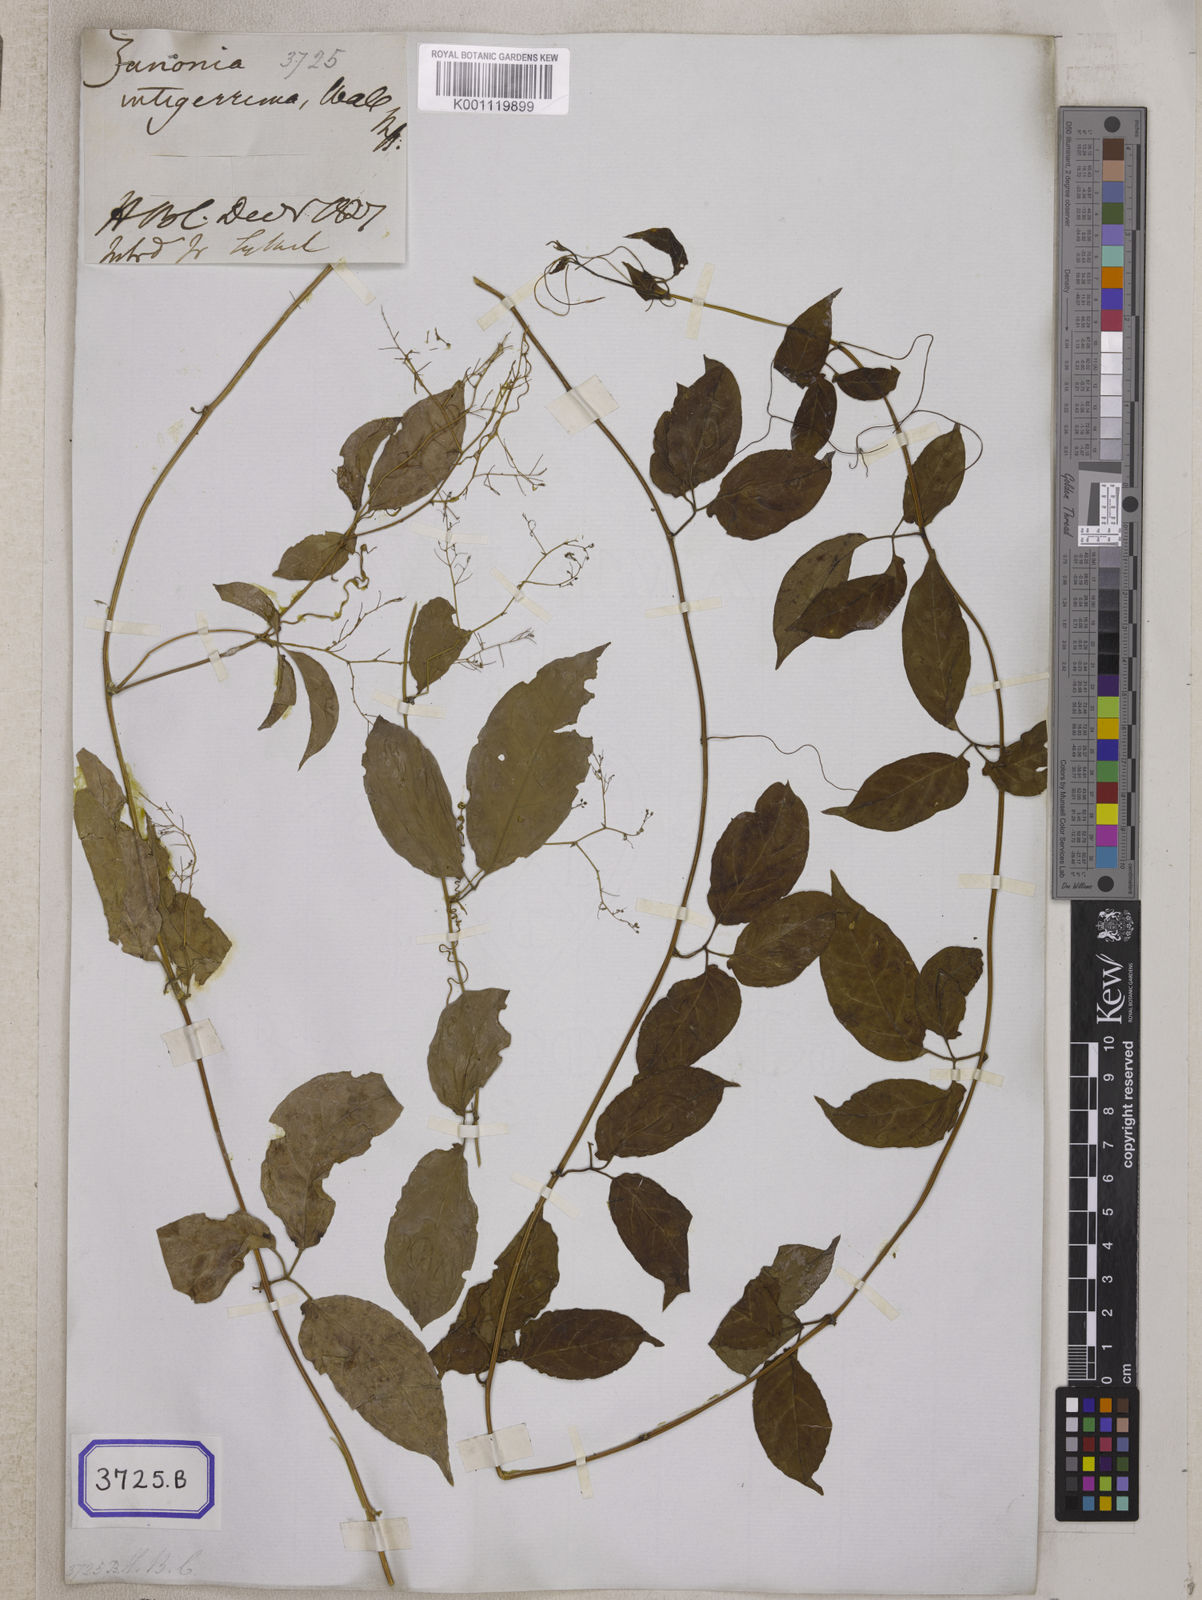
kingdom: Plantae
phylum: Tracheophyta
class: Magnoliopsida
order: Cucurbitales
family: Cucurbitaceae
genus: Neoalsomitra
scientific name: Neoalsomitra clavigera
